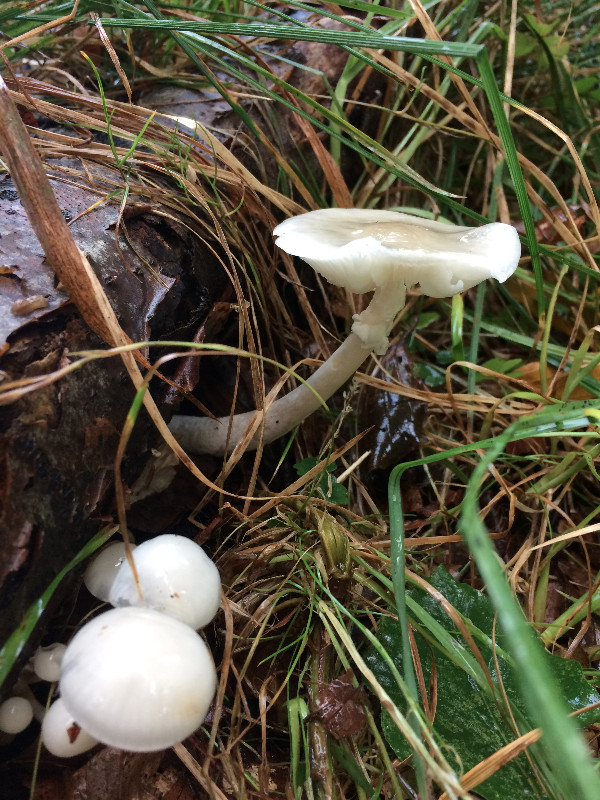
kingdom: Fungi
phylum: Basidiomycota
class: Agaricomycetes
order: Agaricales
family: Physalacriaceae
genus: Mucidula
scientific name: Mucidula mucida
